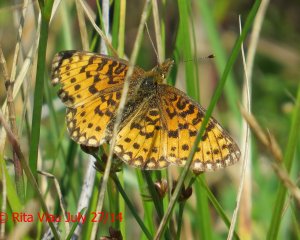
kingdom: Animalia
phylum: Arthropoda
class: Insecta
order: Lepidoptera
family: Nymphalidae
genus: Boloria
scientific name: Boloria selene
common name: Silver-bordered Fritillary
